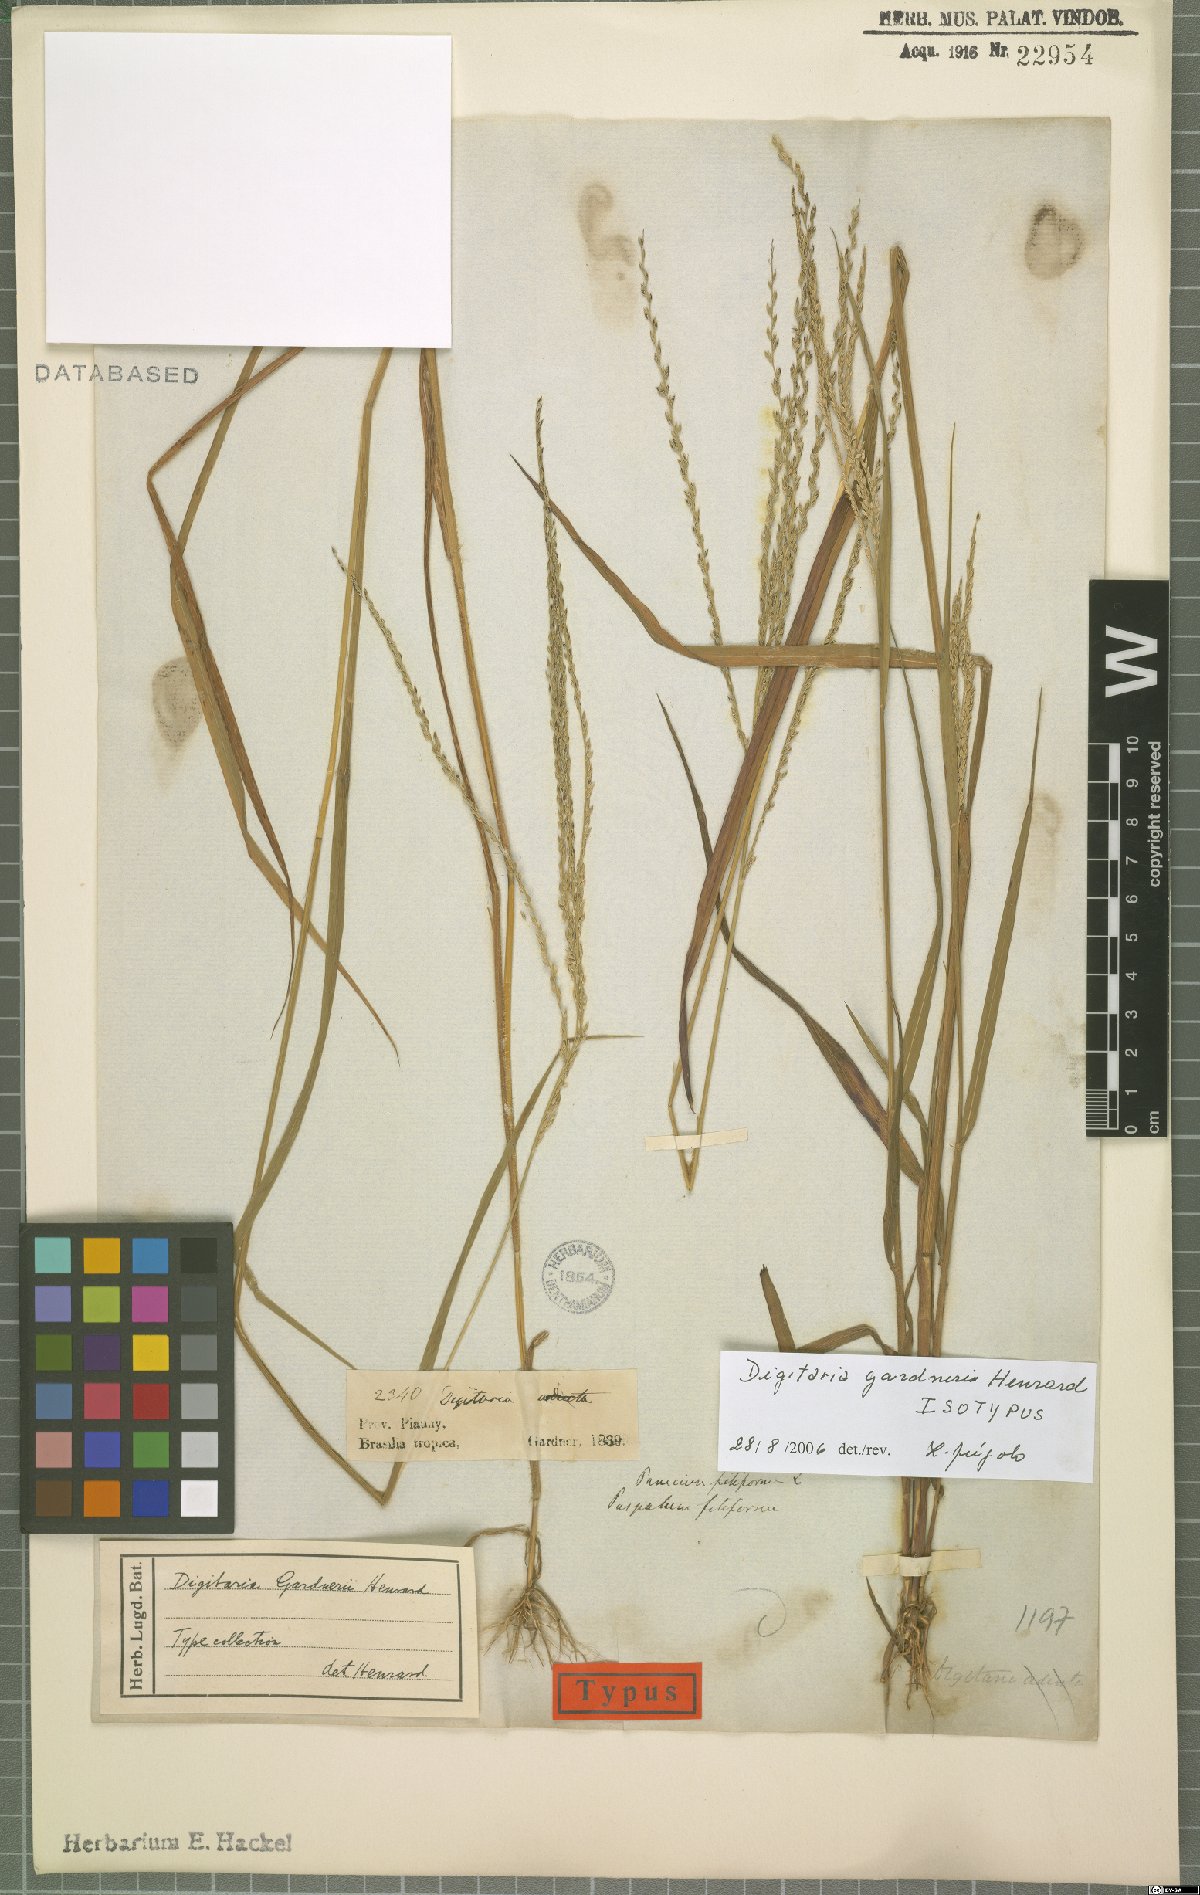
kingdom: Plantae
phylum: Tracheophyta
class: Liliopsida
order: Poales
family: Poaceae
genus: Digitaria
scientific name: Digitaria gardneri
